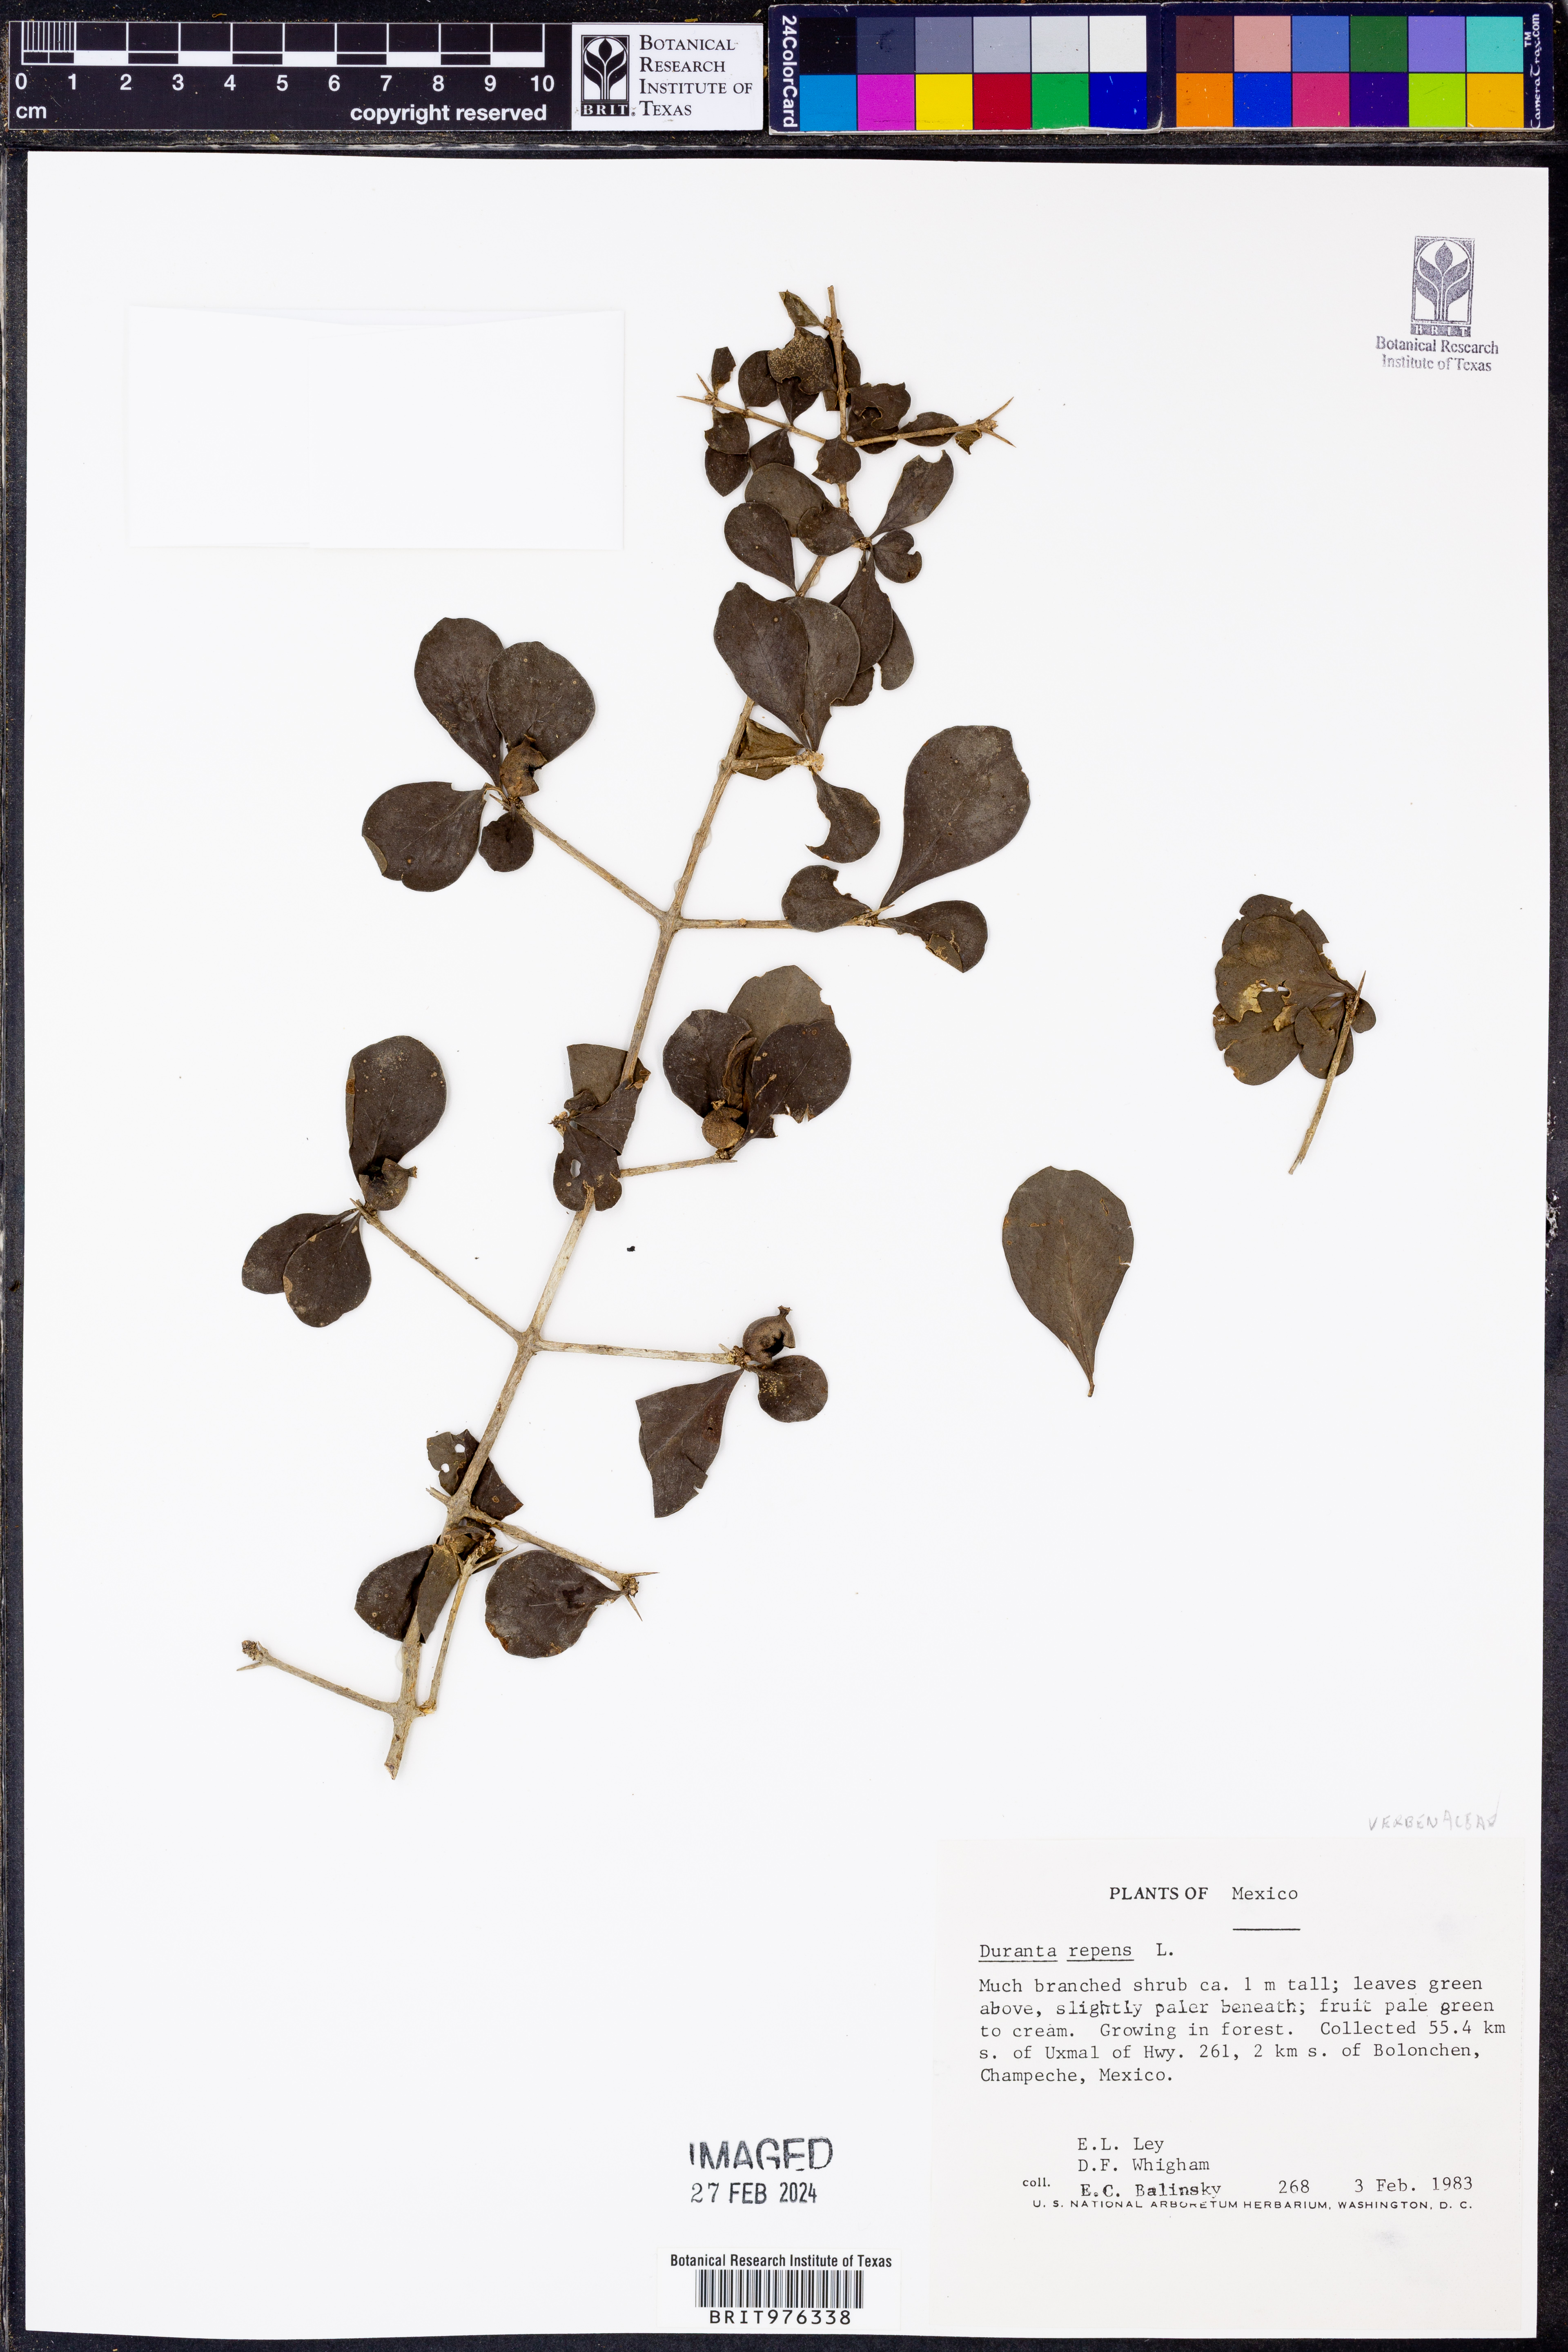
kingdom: Plantae
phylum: Tracheophyta
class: Magnoliopsida
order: Lamiales
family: Verbenaceae
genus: Duranta
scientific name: Duranta
